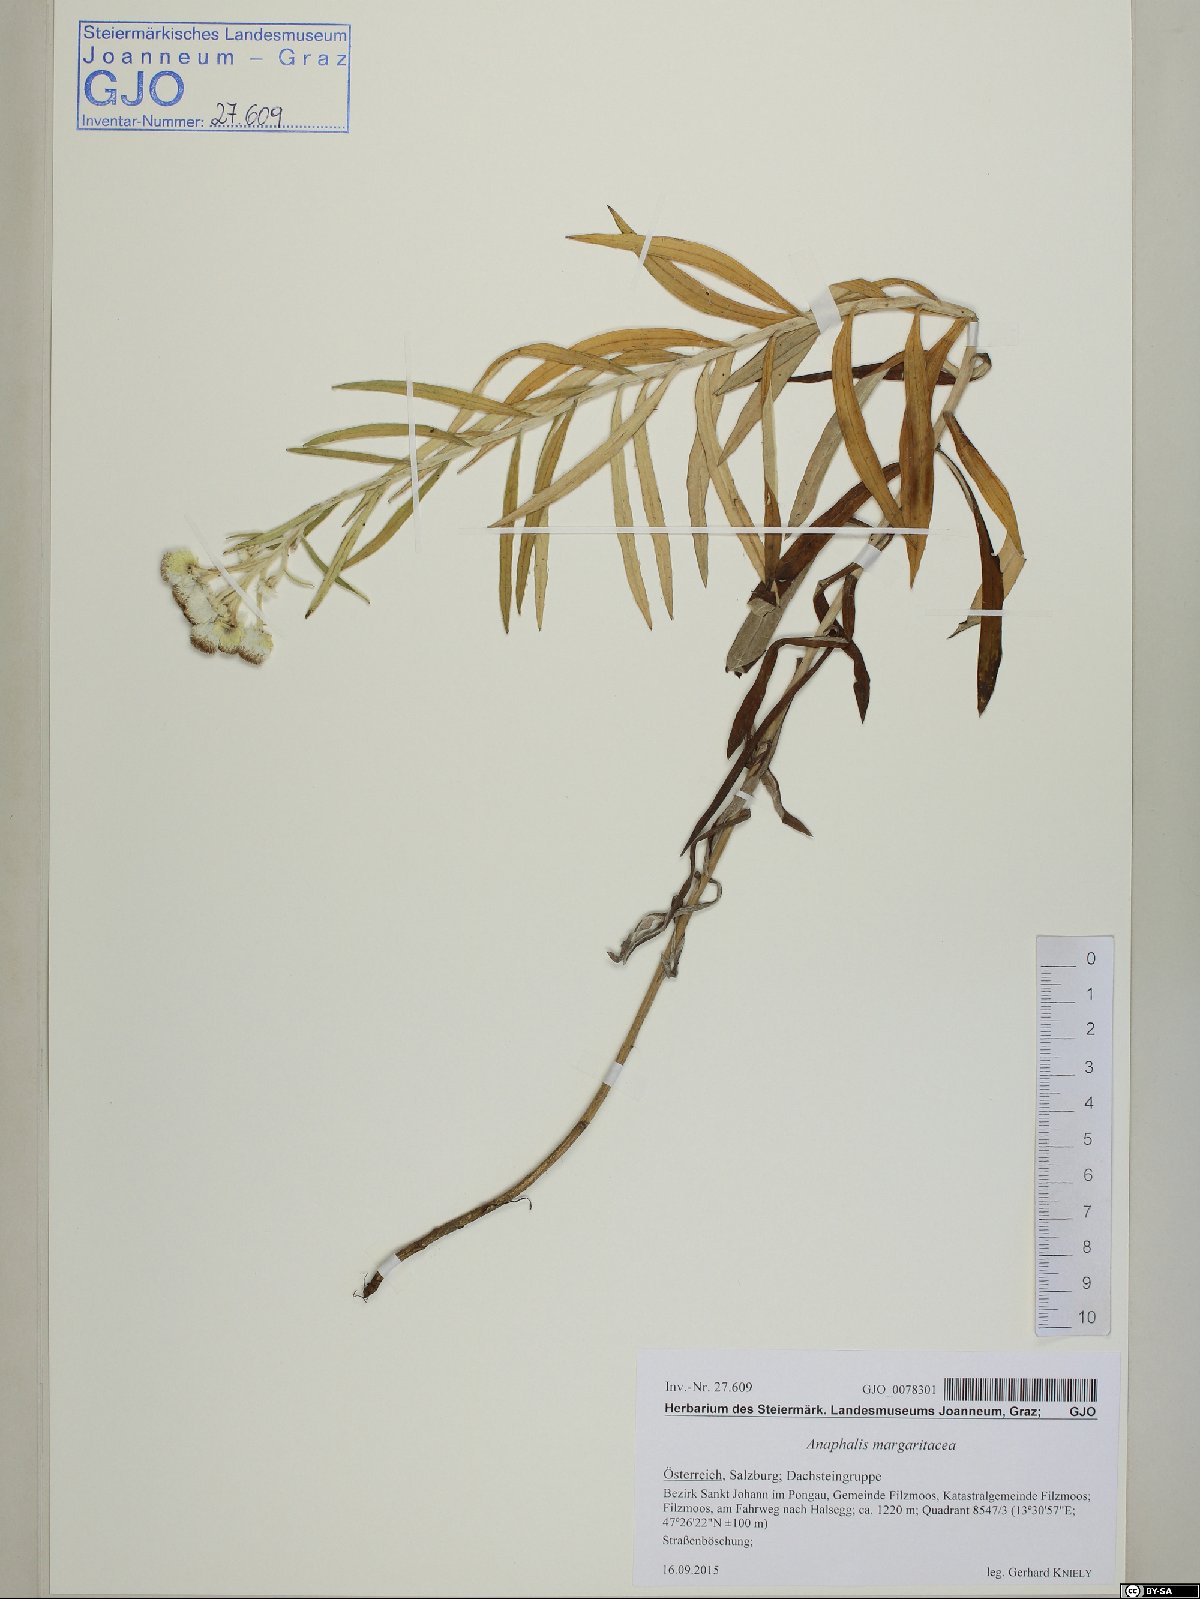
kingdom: Plantae
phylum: Tracheophyta
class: Magnoliopsida
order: Asterales
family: Asteraceae
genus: Anaphalis
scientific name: Anaphalis margaritacea
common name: Pearly everlasting
